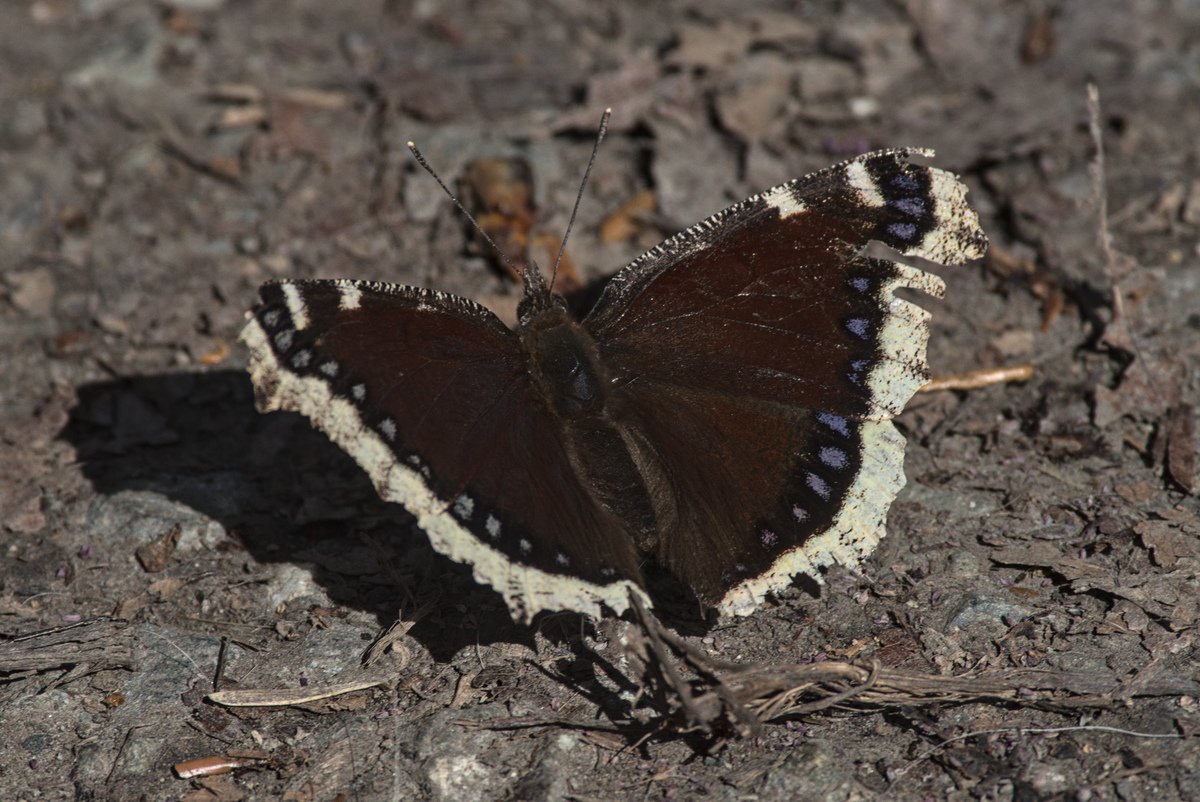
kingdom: Animalia
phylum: Arthropoda
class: Insecta
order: Lepidoptera
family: Nymphalidae
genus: Nymphalis
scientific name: Nymphalis antiopa
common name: Mourning Cloak
